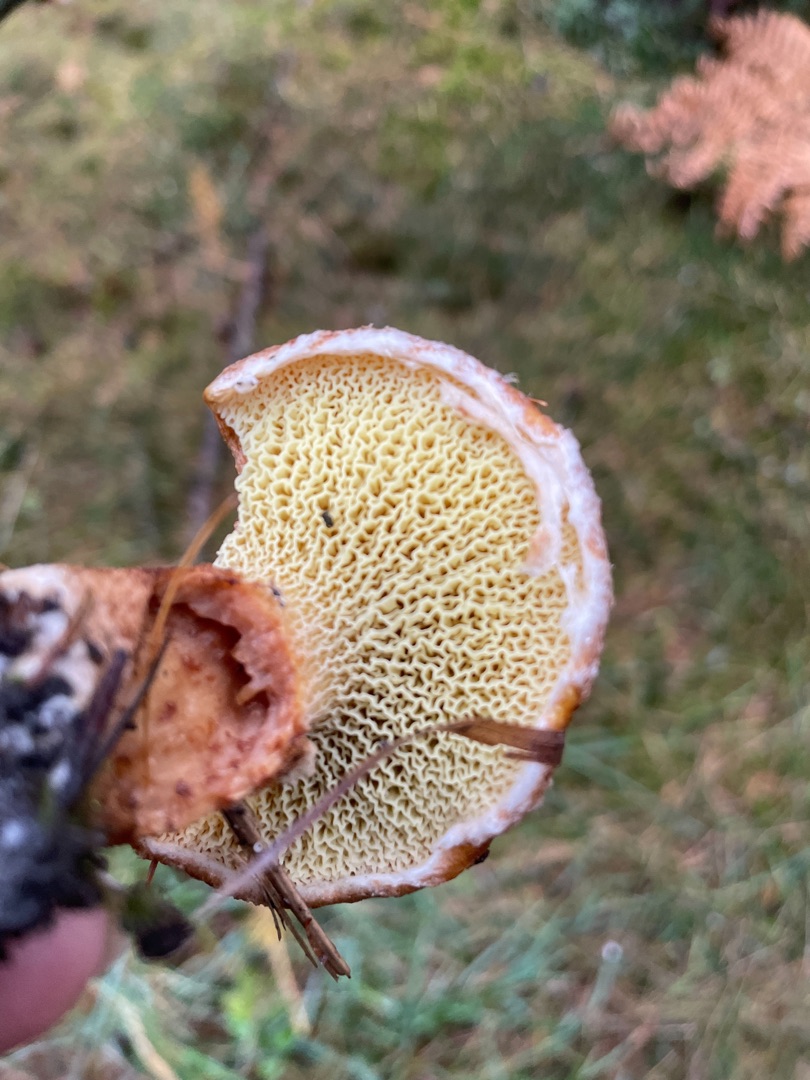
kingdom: Fungi
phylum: Basidiomycota
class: Agaricomycetes
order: Boletales
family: Suillaceae
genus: Suillus
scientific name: Suillus cavipes
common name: Hulstokket slimrørhat
